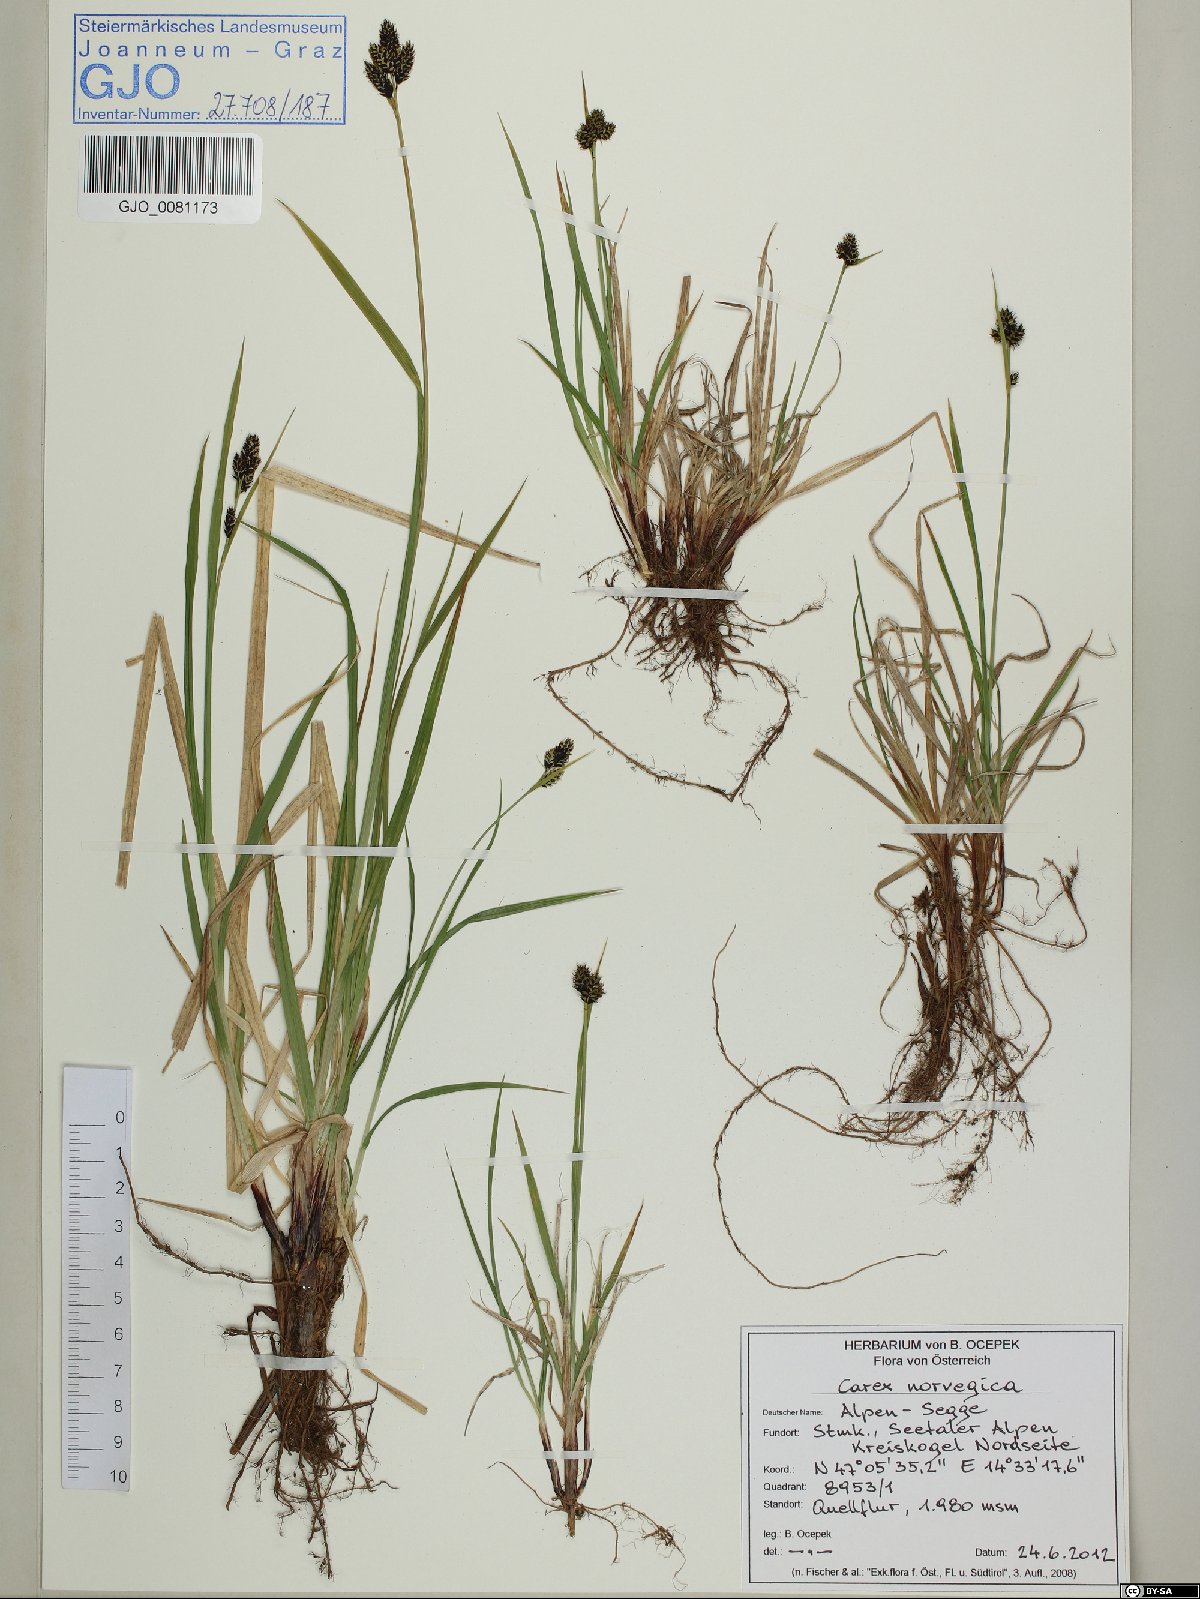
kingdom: Plantae
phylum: Tracheophyta
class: Liliopsida
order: Poales
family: Cyperaceae
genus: Carex
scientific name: Carex norvegica
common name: Close-headed alpine-sedge
